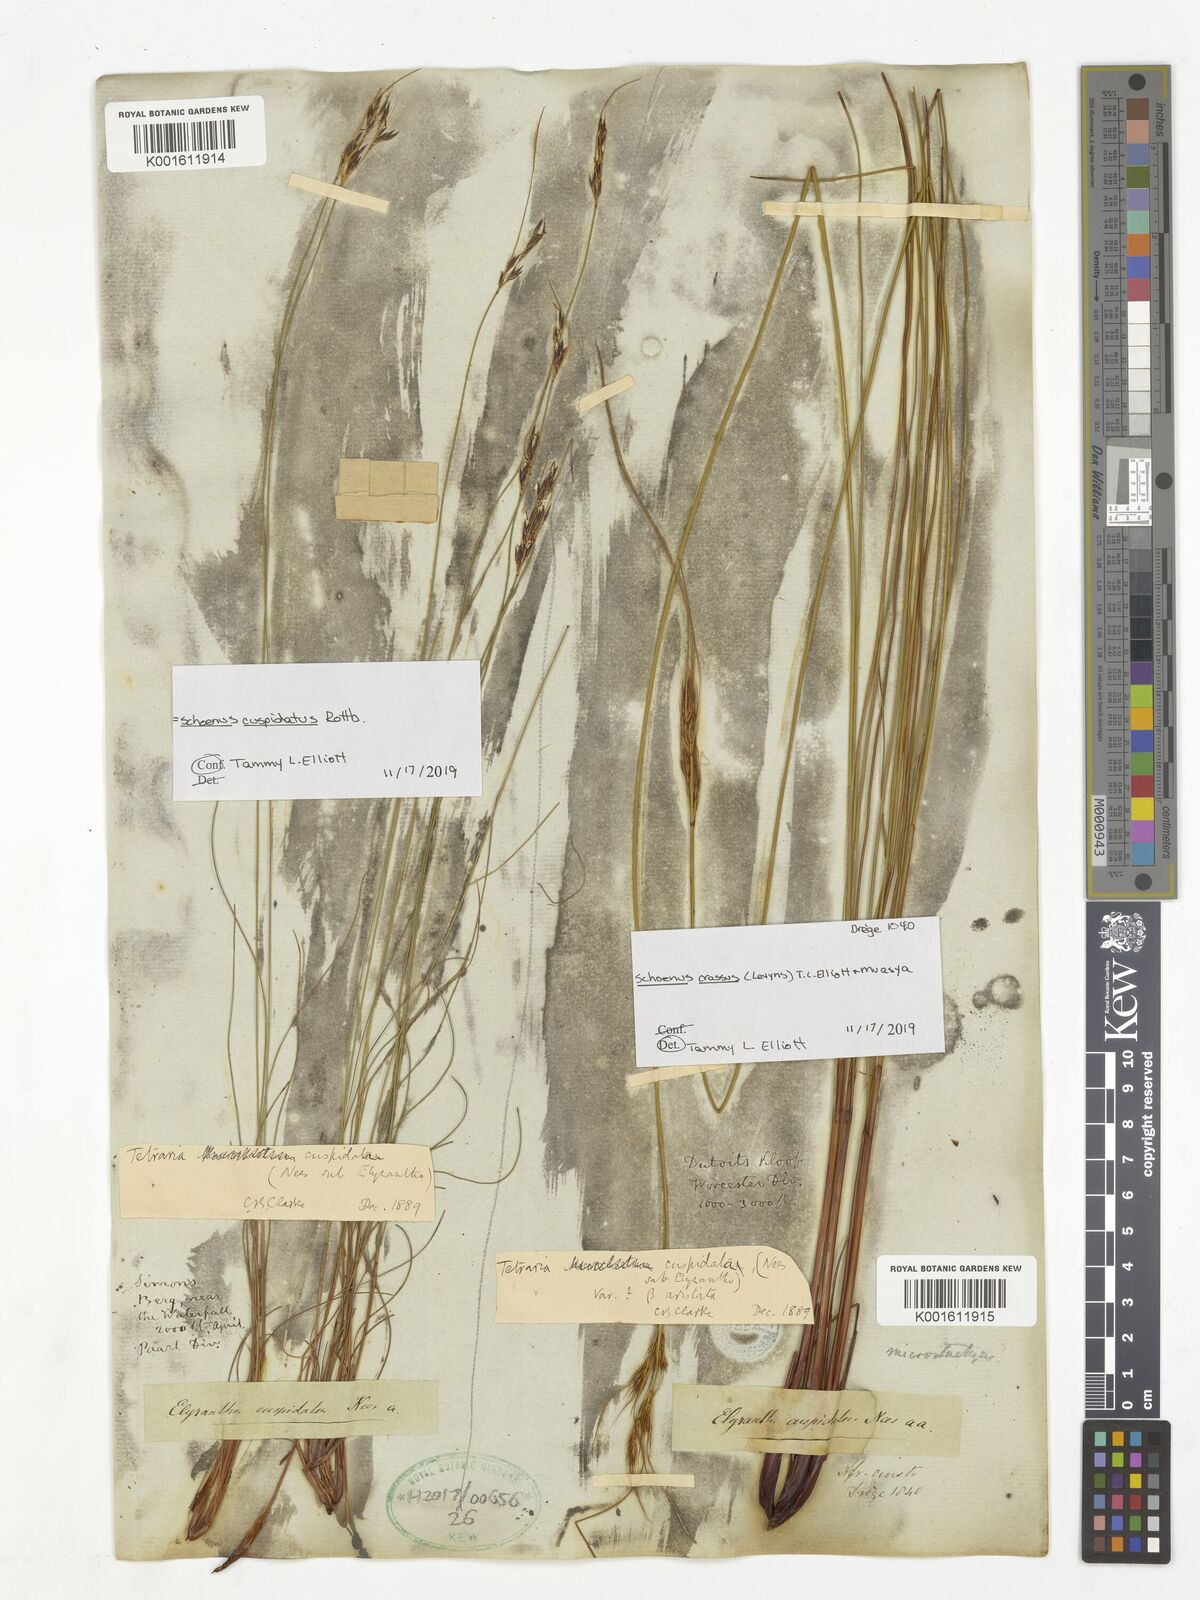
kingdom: Plantae
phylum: Tracheophyta
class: Liliopsida
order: Poales
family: Cyperaceae
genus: Schoenus
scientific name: Schoenus crassus
